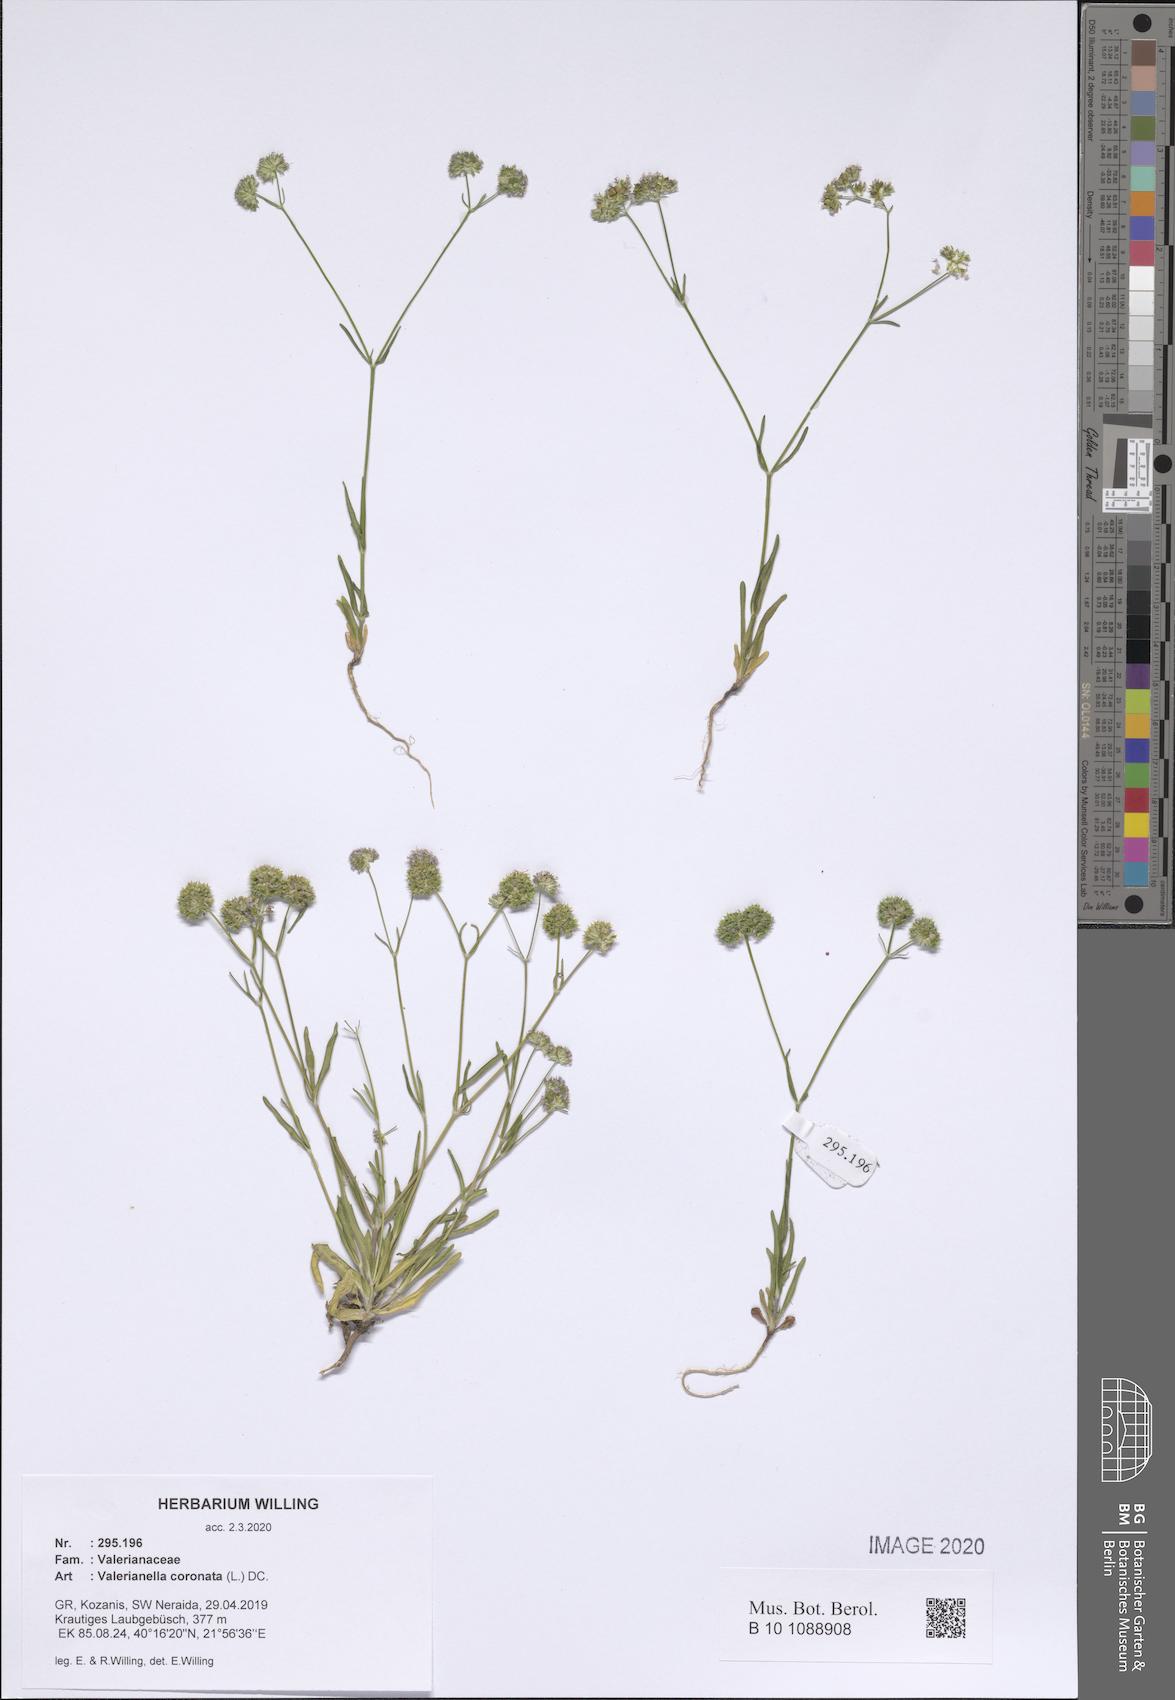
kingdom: Plantae
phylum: Tracheophyta
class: Magnoliopsida
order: Dipsacales
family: Caprifoliaceae
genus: Valerianella
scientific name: Valerianella coronata
